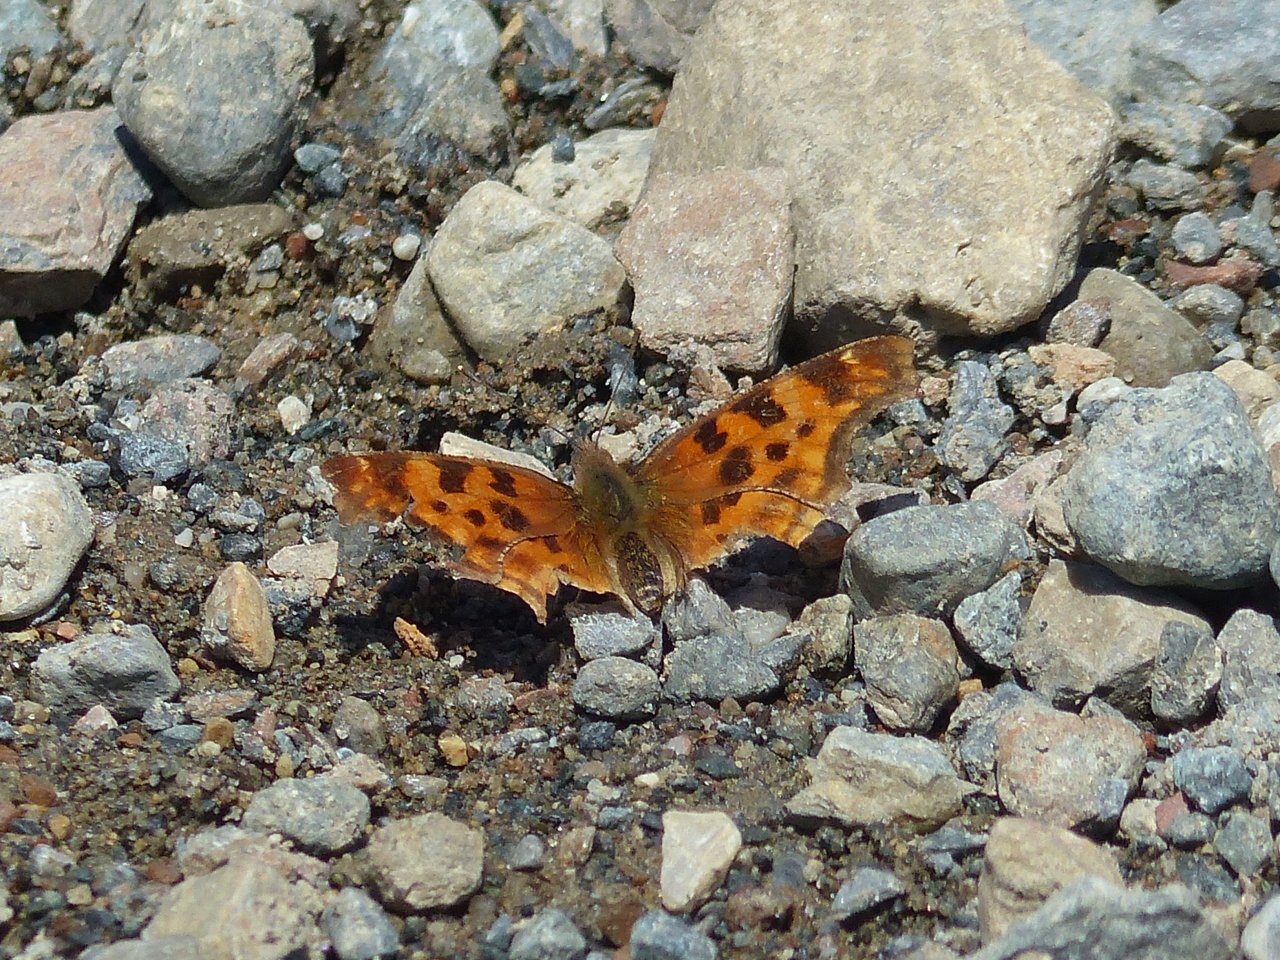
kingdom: Animalia
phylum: Arthropoda
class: Insecta
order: Lepidoptera
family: Nymphalidae
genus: Polygonia
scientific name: Polygonia satyrus
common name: Satyr Comma
